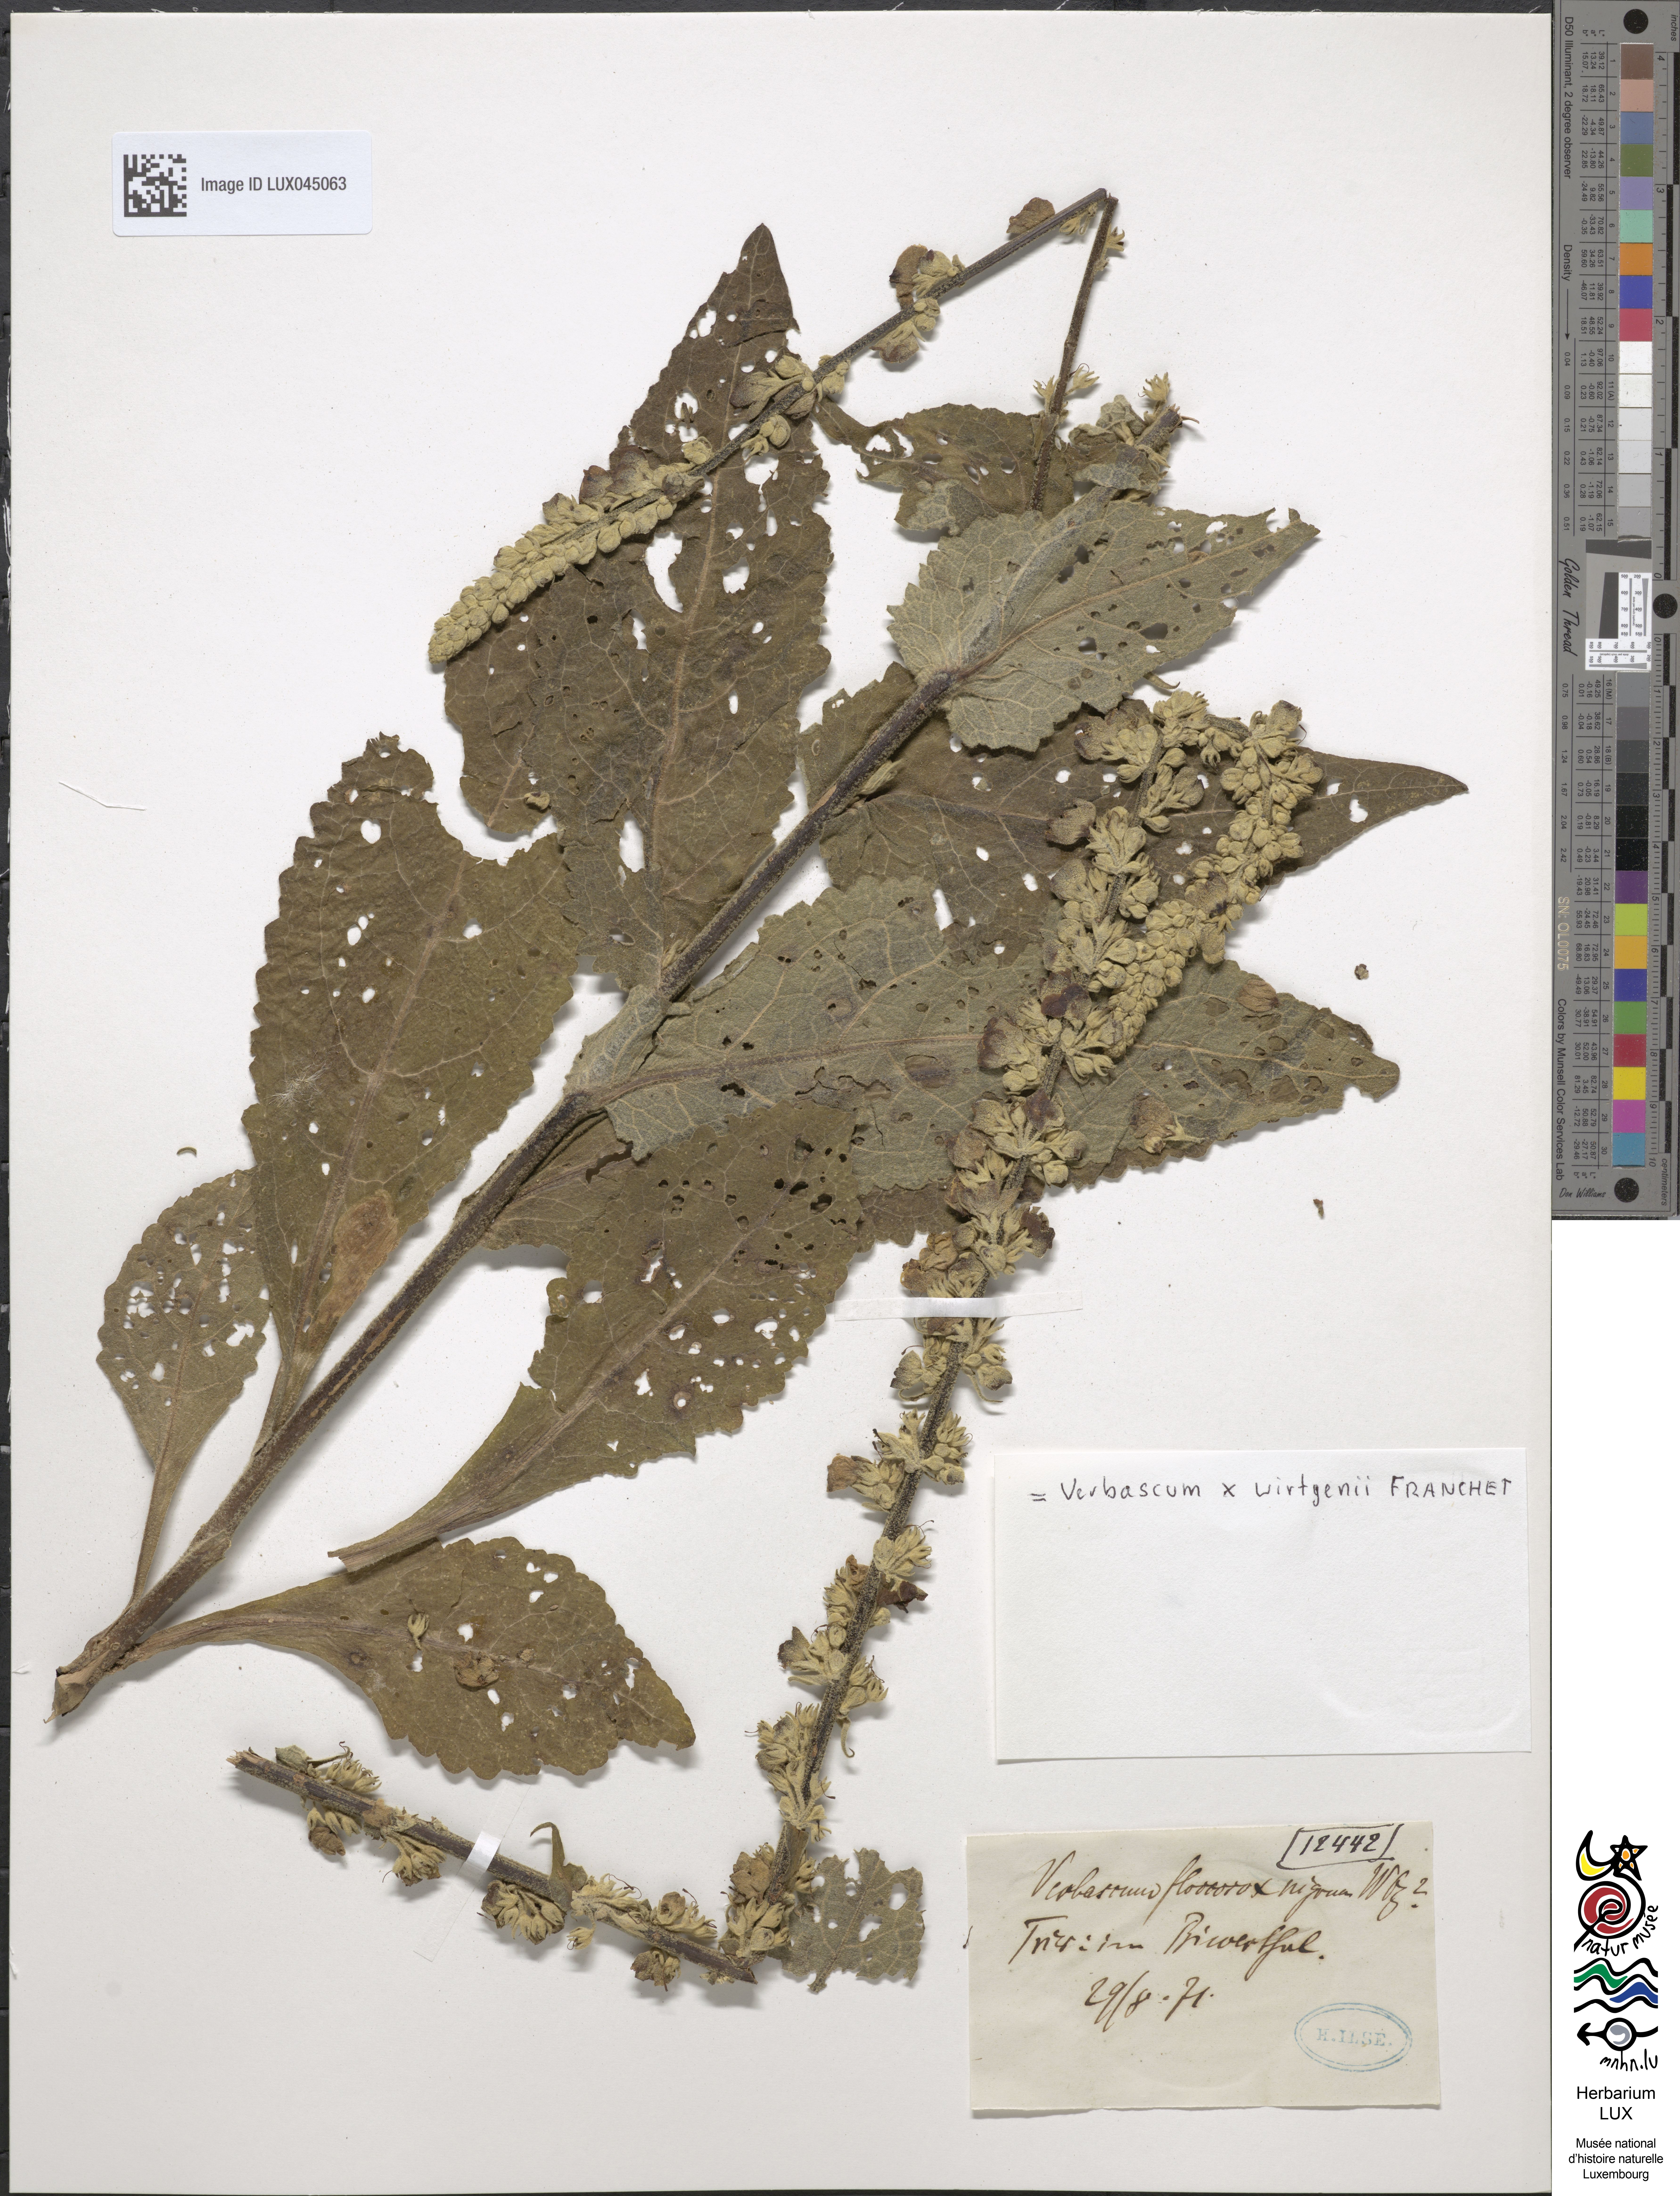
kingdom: Plantae
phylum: Tracheophyta
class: Magnoliopsida
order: Lamiales
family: Scrophulariaceae
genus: Verbascum
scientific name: Verbascum
